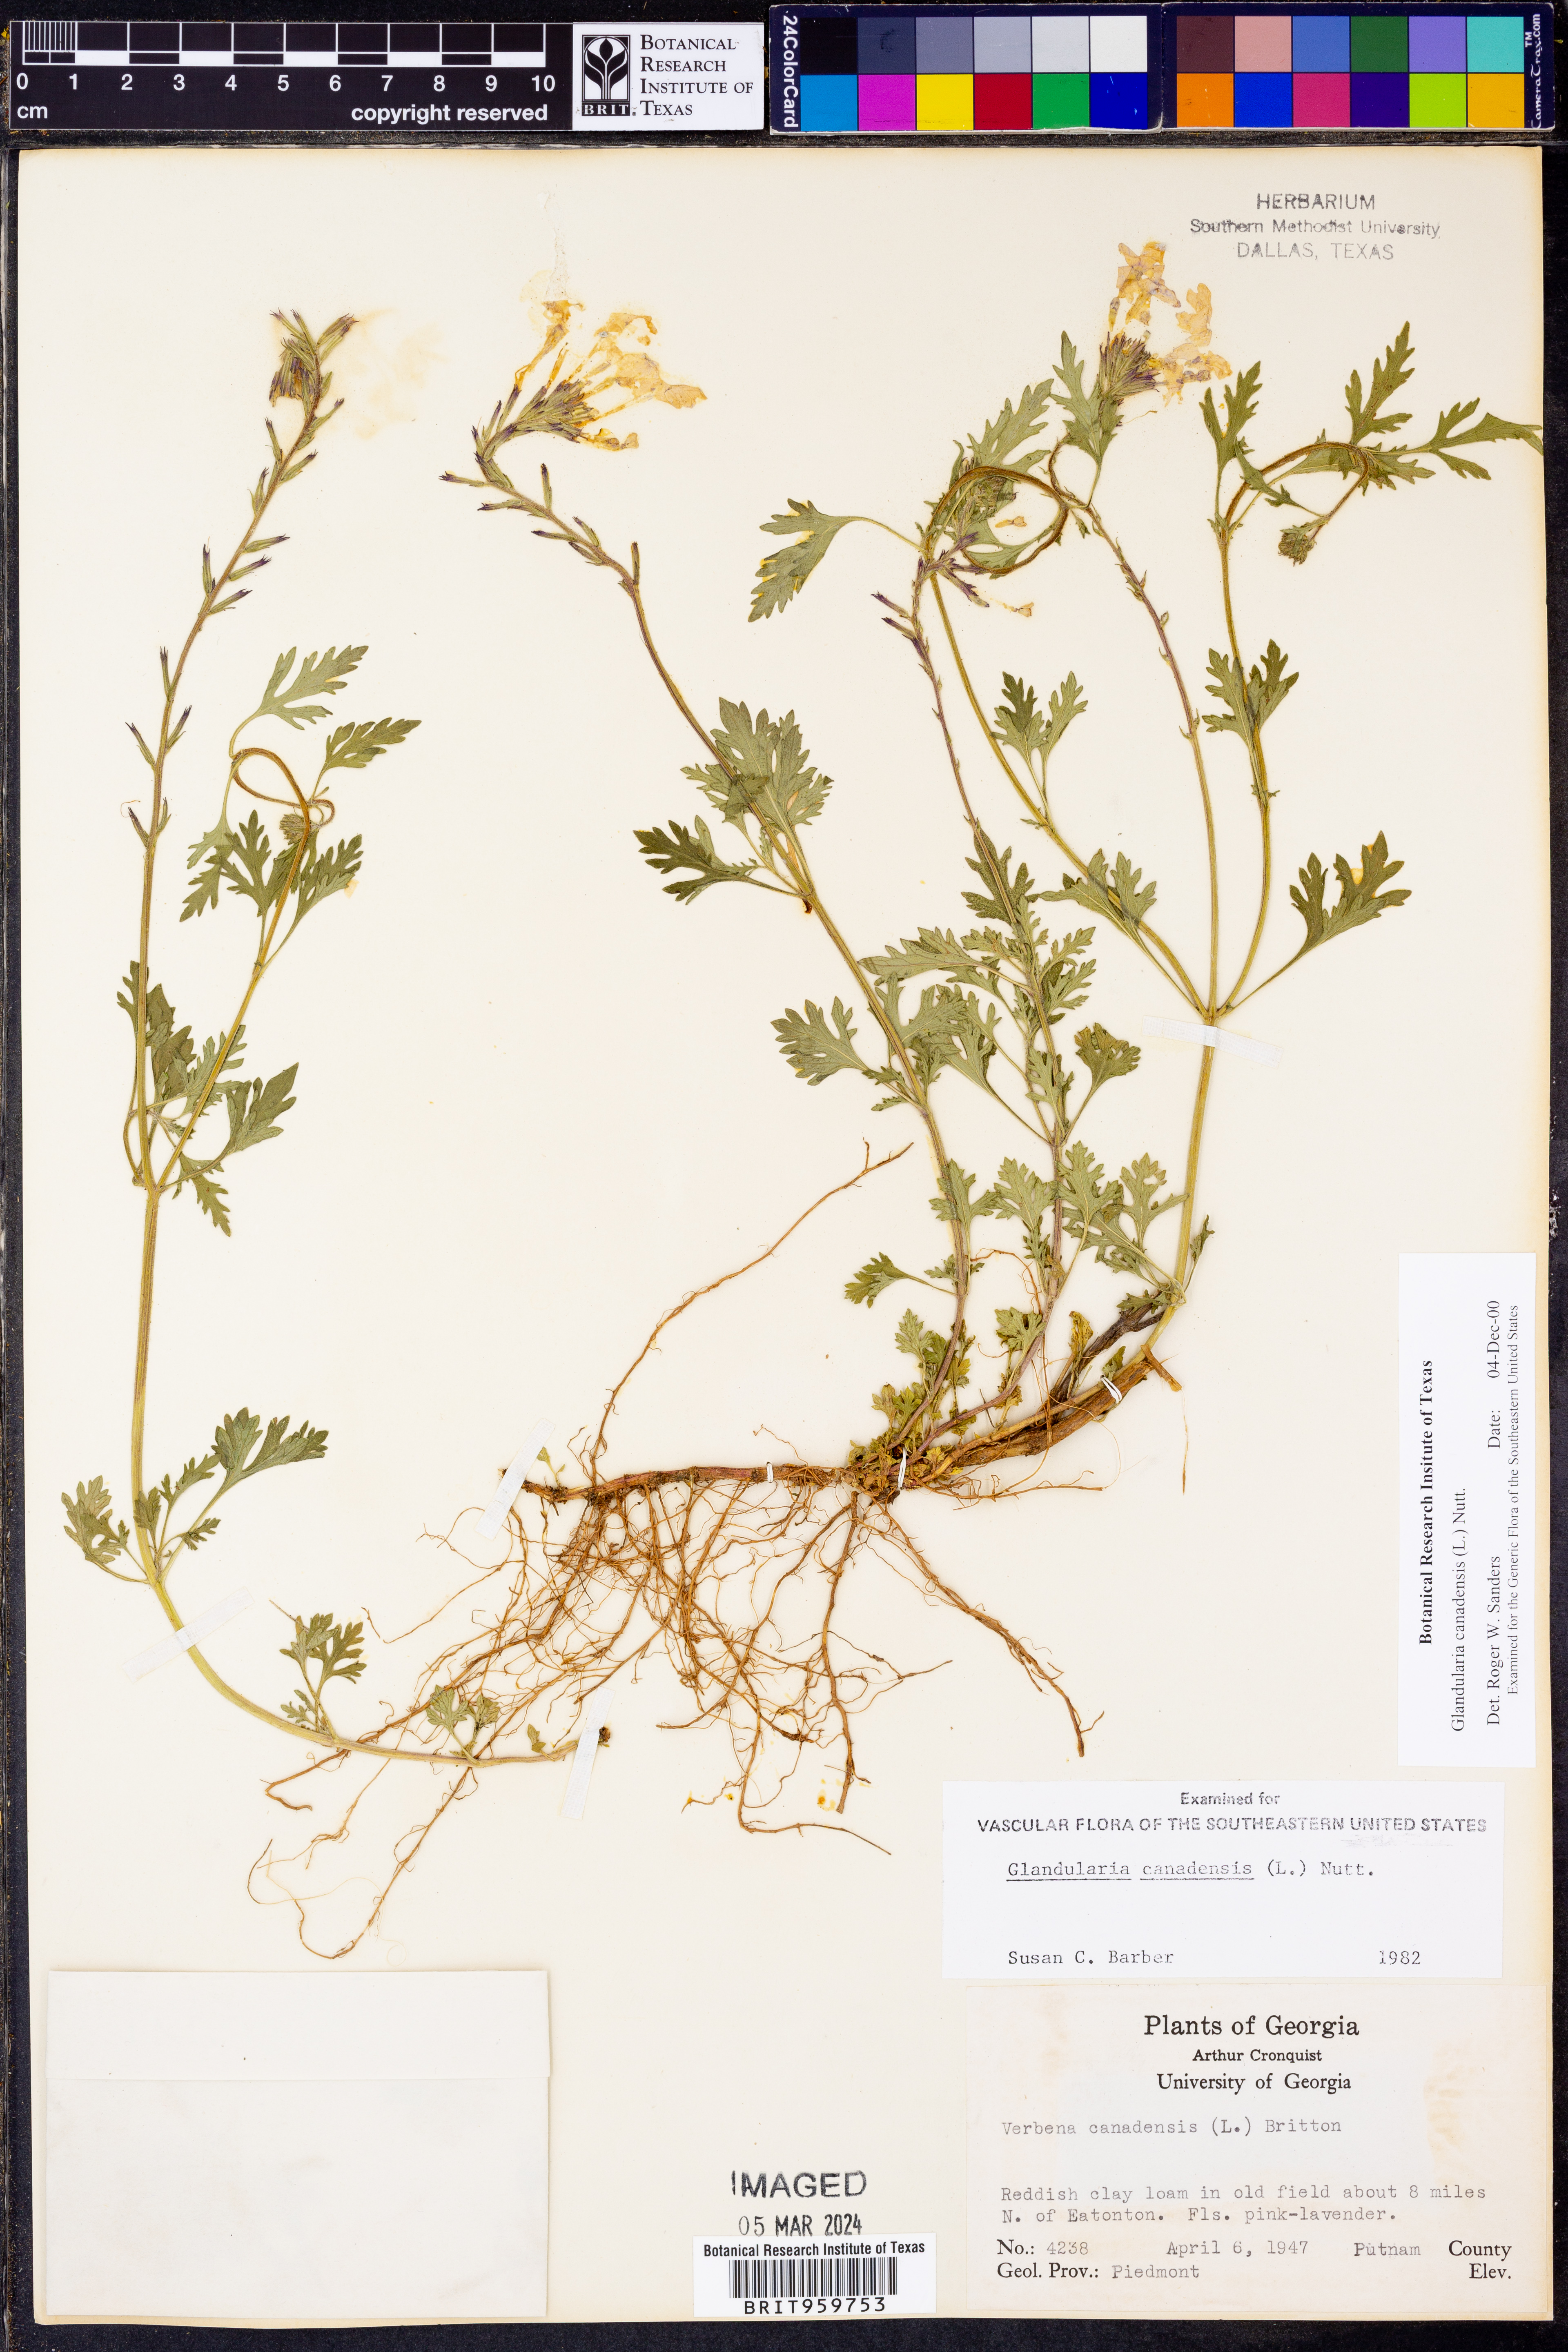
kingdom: Plantae
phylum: Tracheophyta
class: Magnoliopsida
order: Lamiales
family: Verbenaceae
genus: Verbena
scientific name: Verbena canadensis
